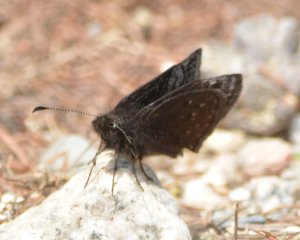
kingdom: Animalia
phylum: Arthropoda
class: Insecta
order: Lepidoptera
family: Hesperiidae
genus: Erynnis
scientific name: Erynnis icelus
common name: Dreamy Duskywing
